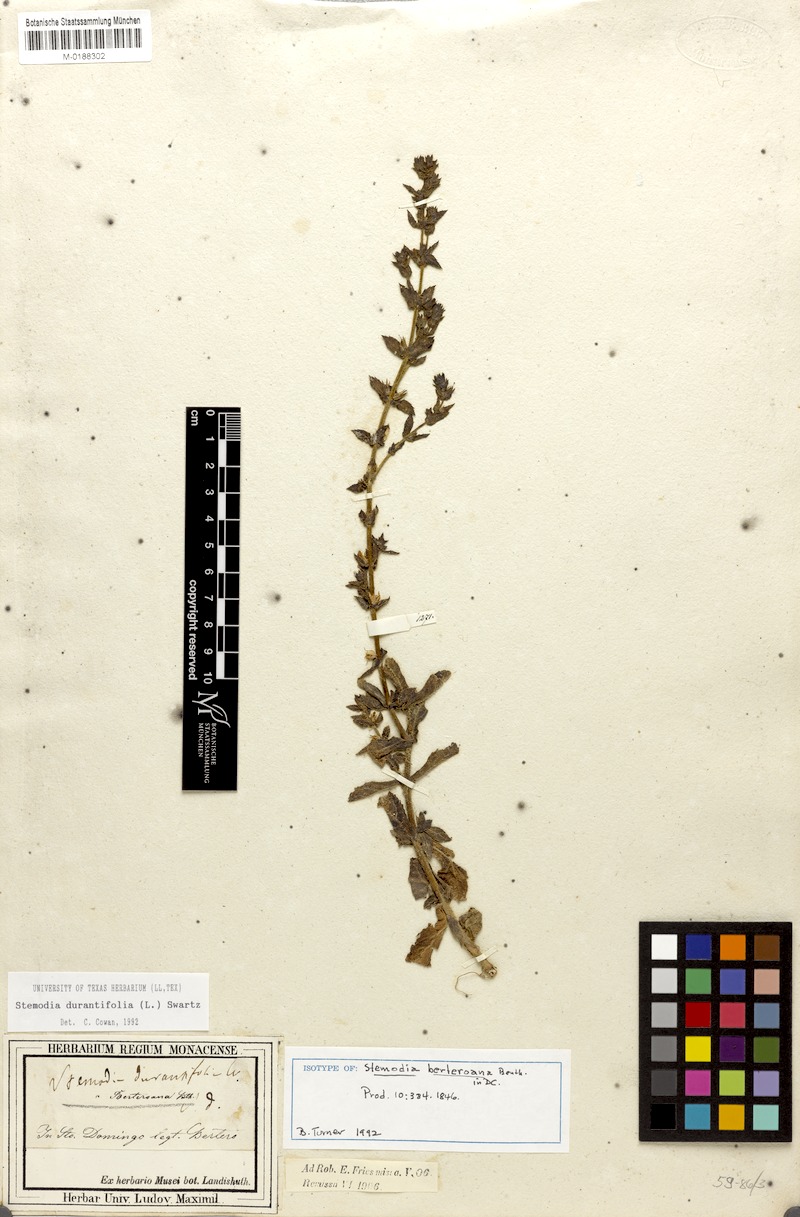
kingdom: Plantae
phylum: Tracheophyta
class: Magnoliopsida
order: Lamiales
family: Plantaginaceae
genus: Stemodia
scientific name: Stemodia durantifolia
